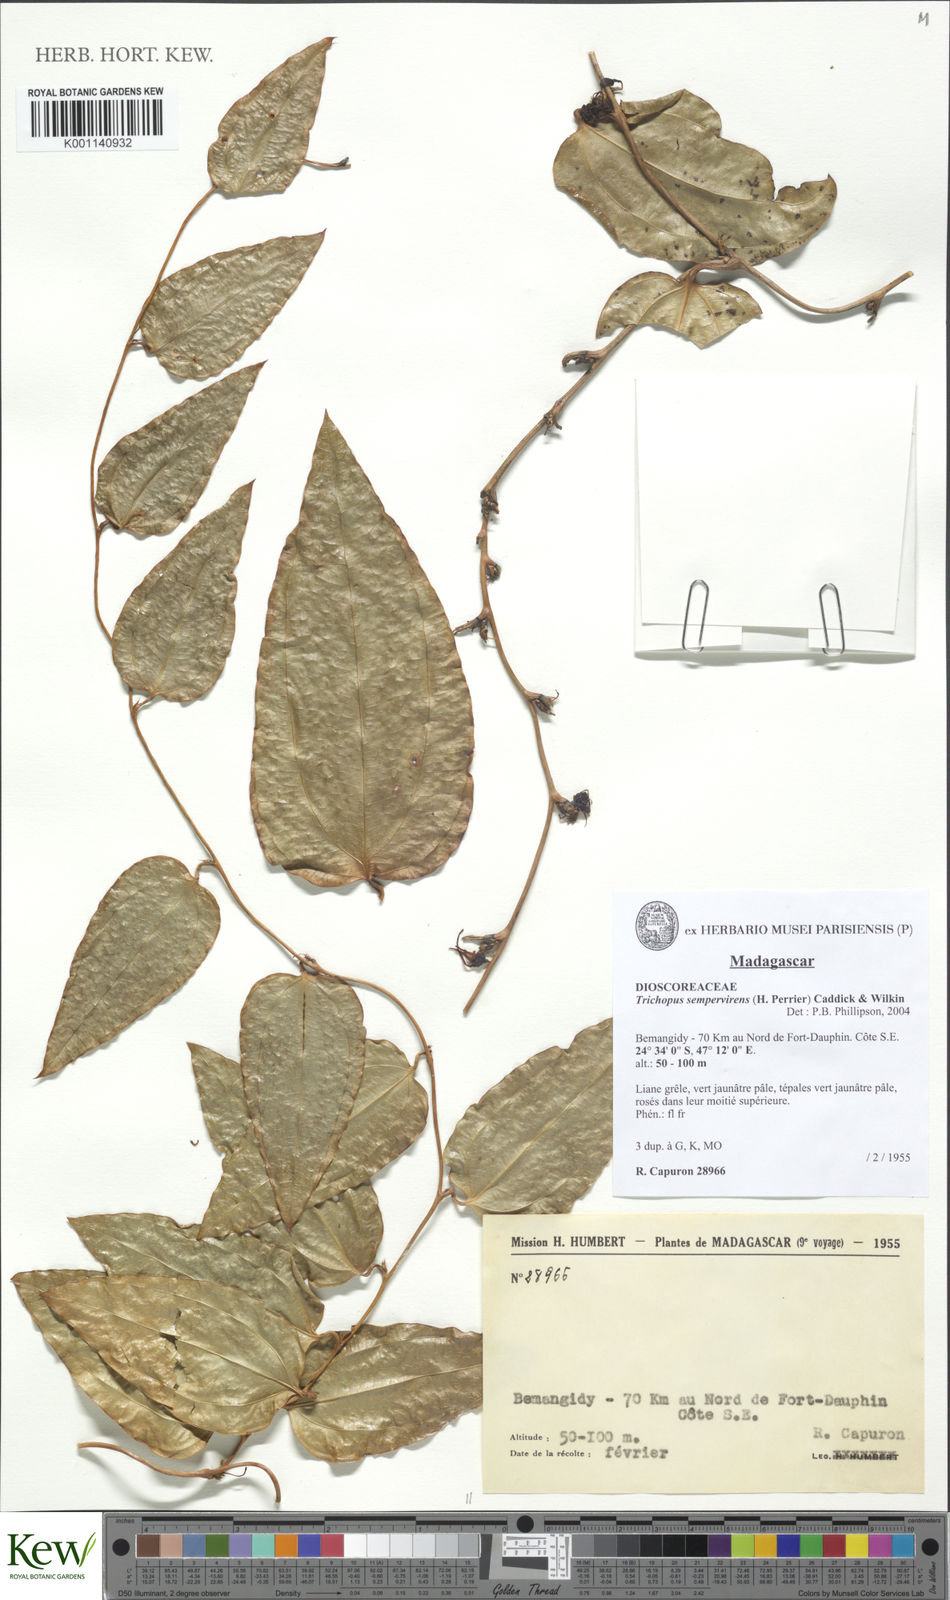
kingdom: Plantae
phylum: Tracheophyta
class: Liliopsida
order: Dioscoreales
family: Dioscoreaceae
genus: Trichopus
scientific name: Trichopus sempervirens
